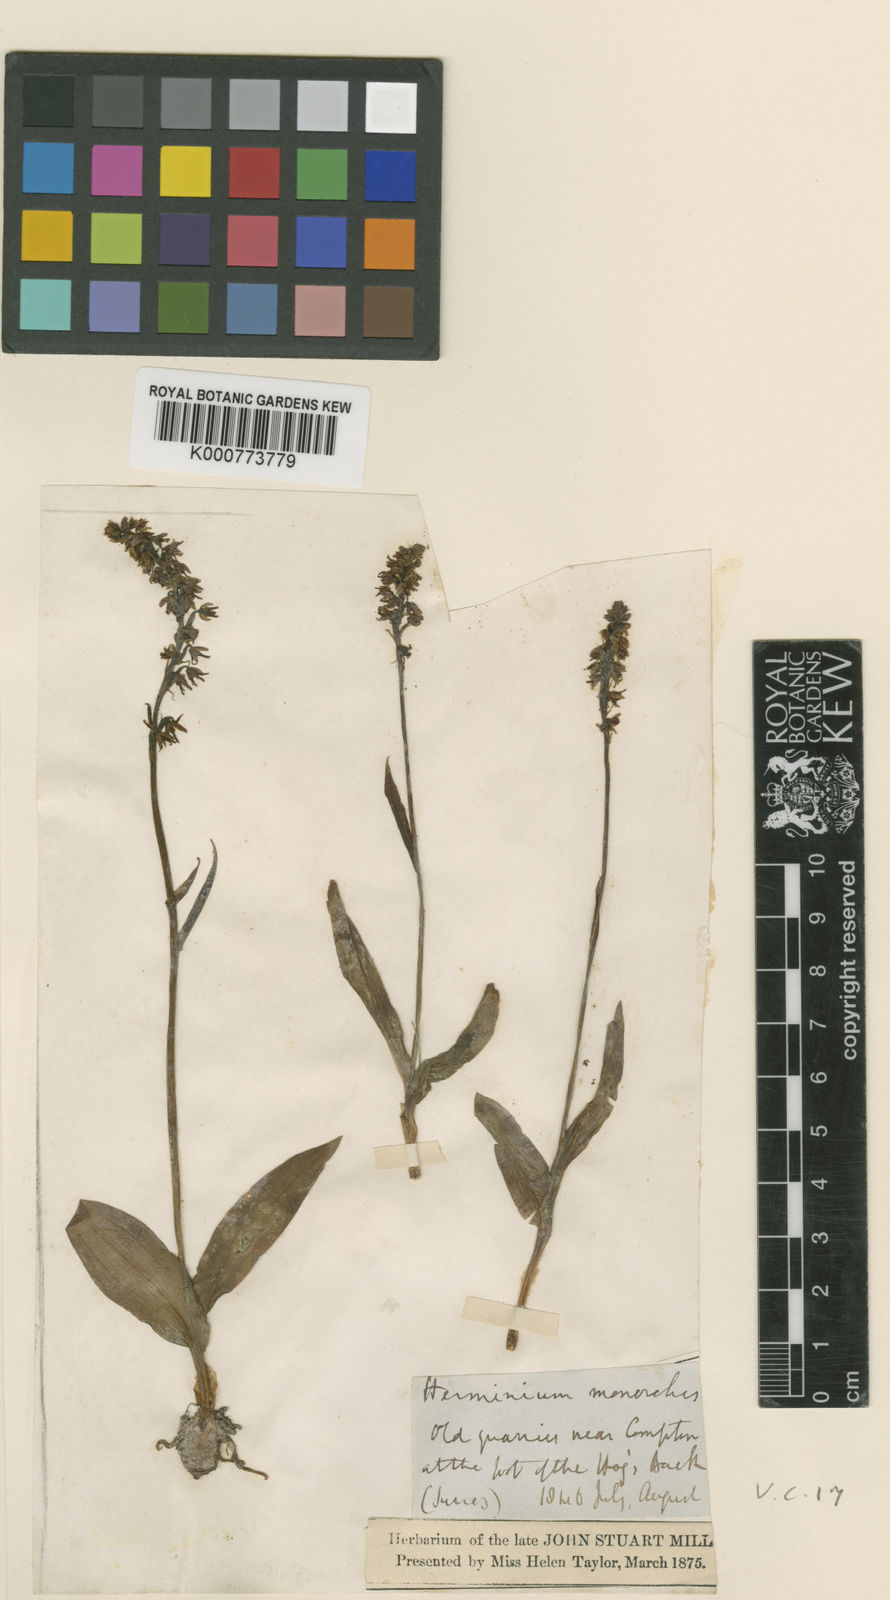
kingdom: Plantae
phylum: Tracheophyta
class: Liliopsida
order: Asparagales
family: Orchidaceae
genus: Herminium
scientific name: Herminium monorchis
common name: Musk orchid
